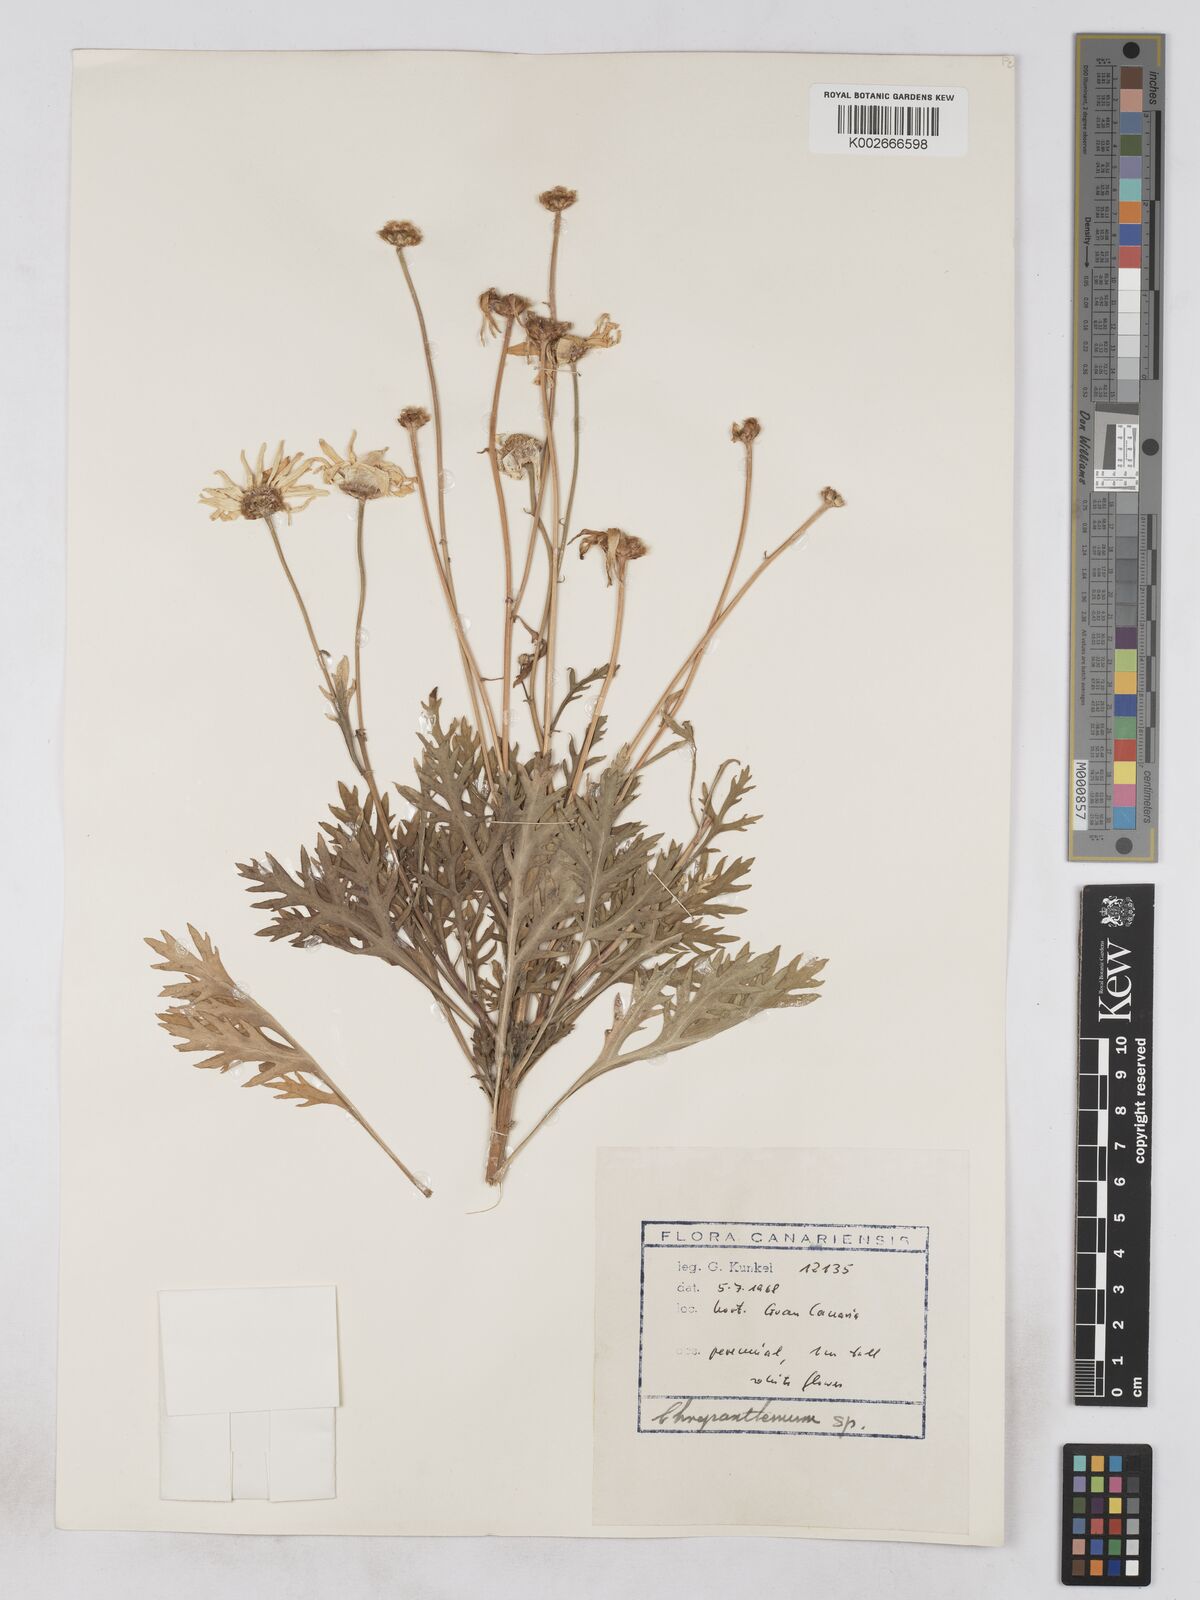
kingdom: Plantae
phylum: Tracheophyta
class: Magnoliopsida
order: Asterales
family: Asteraceae
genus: Argyranthemum
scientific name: Argyranthemum foeniculaceum
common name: Canary island marguerite
